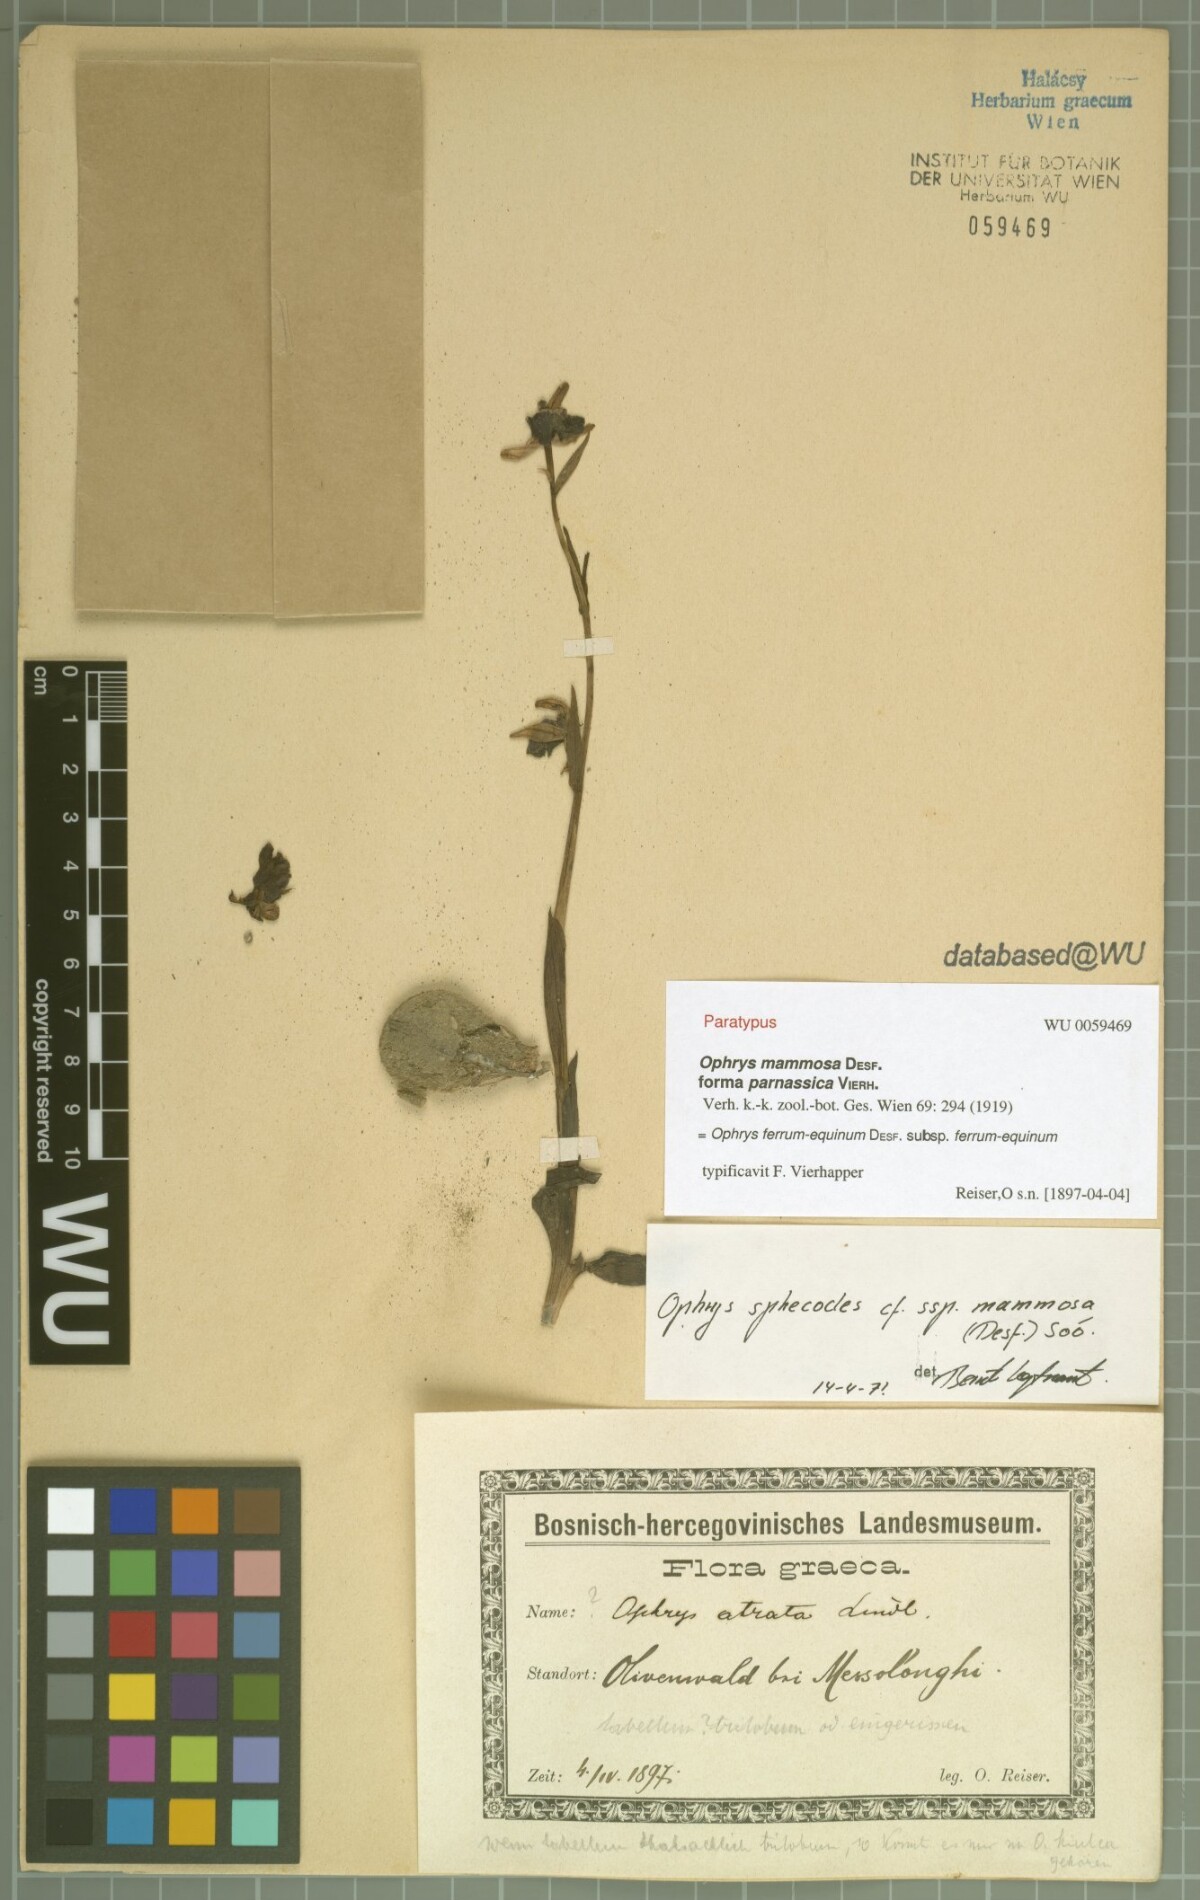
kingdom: Plantae
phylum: Tracheophyta
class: Liliopsida
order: Asparagales
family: Orchidaceae
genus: Ophrys
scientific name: Ophrys ferrum-equinum
